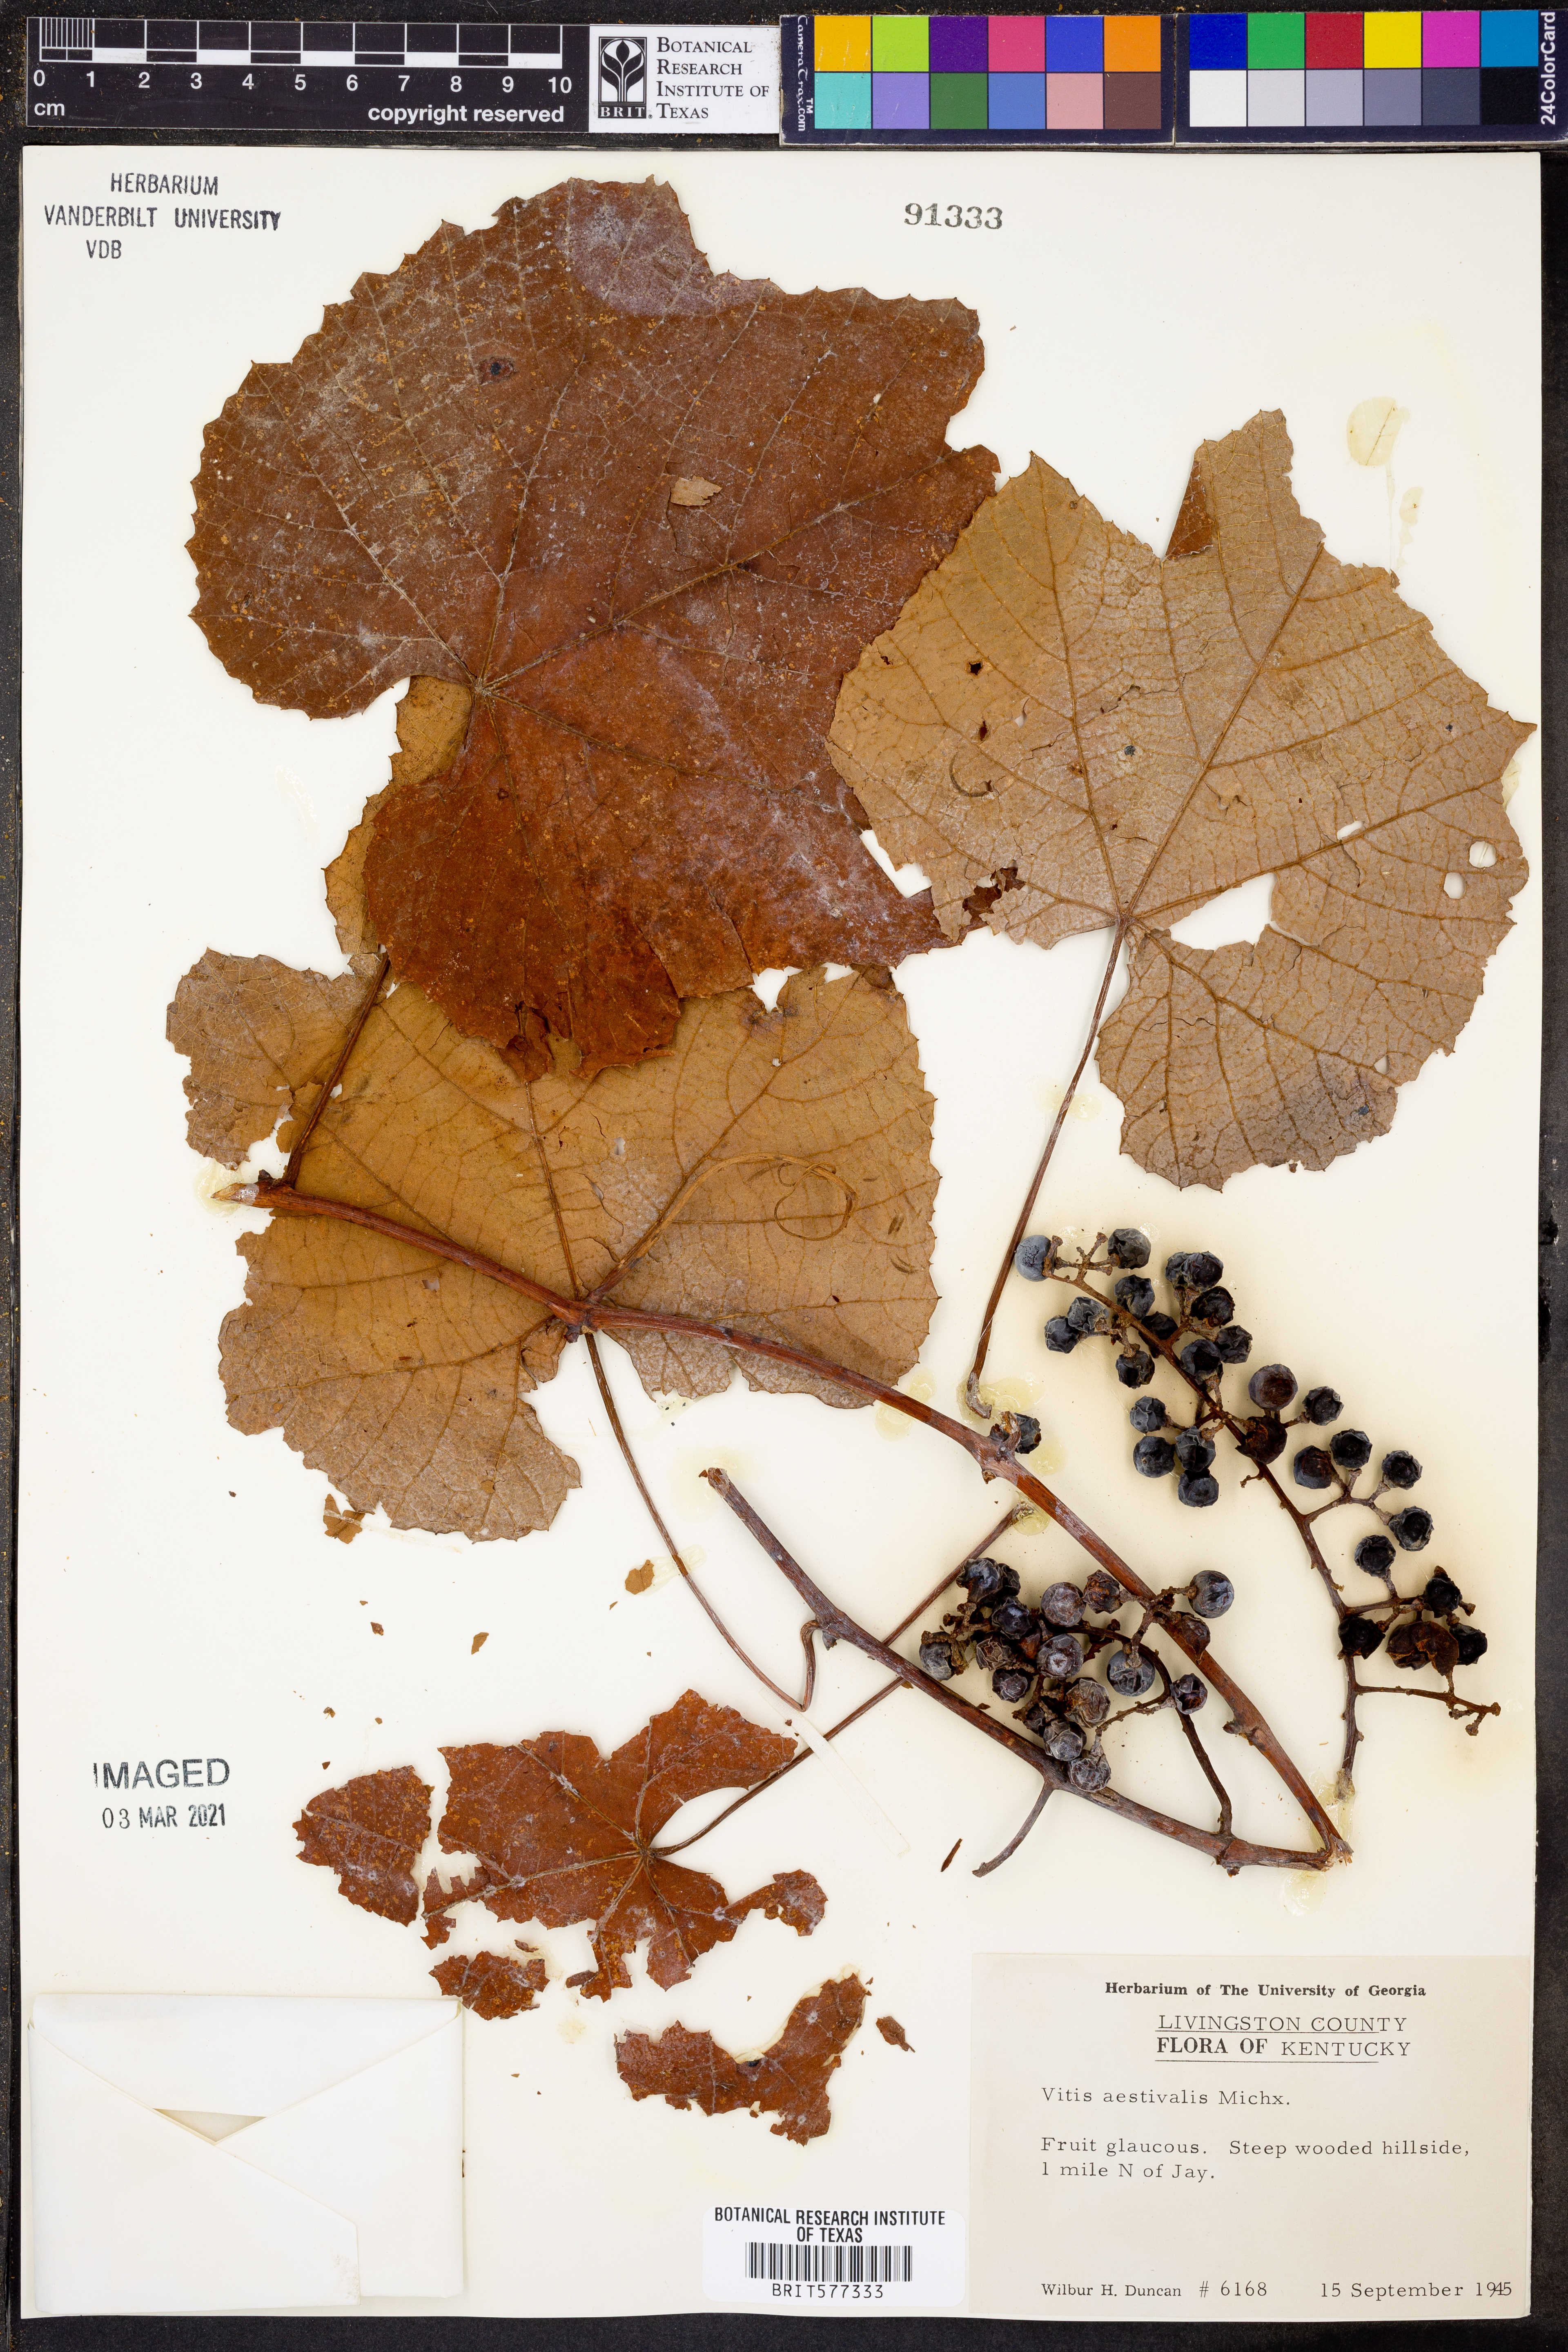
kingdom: Plantae
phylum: Tracheophyta
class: Magnoliopsida
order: Vitales
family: Vitaceae
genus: Vitis
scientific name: Vitis aestivalis
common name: Pigeon grape
